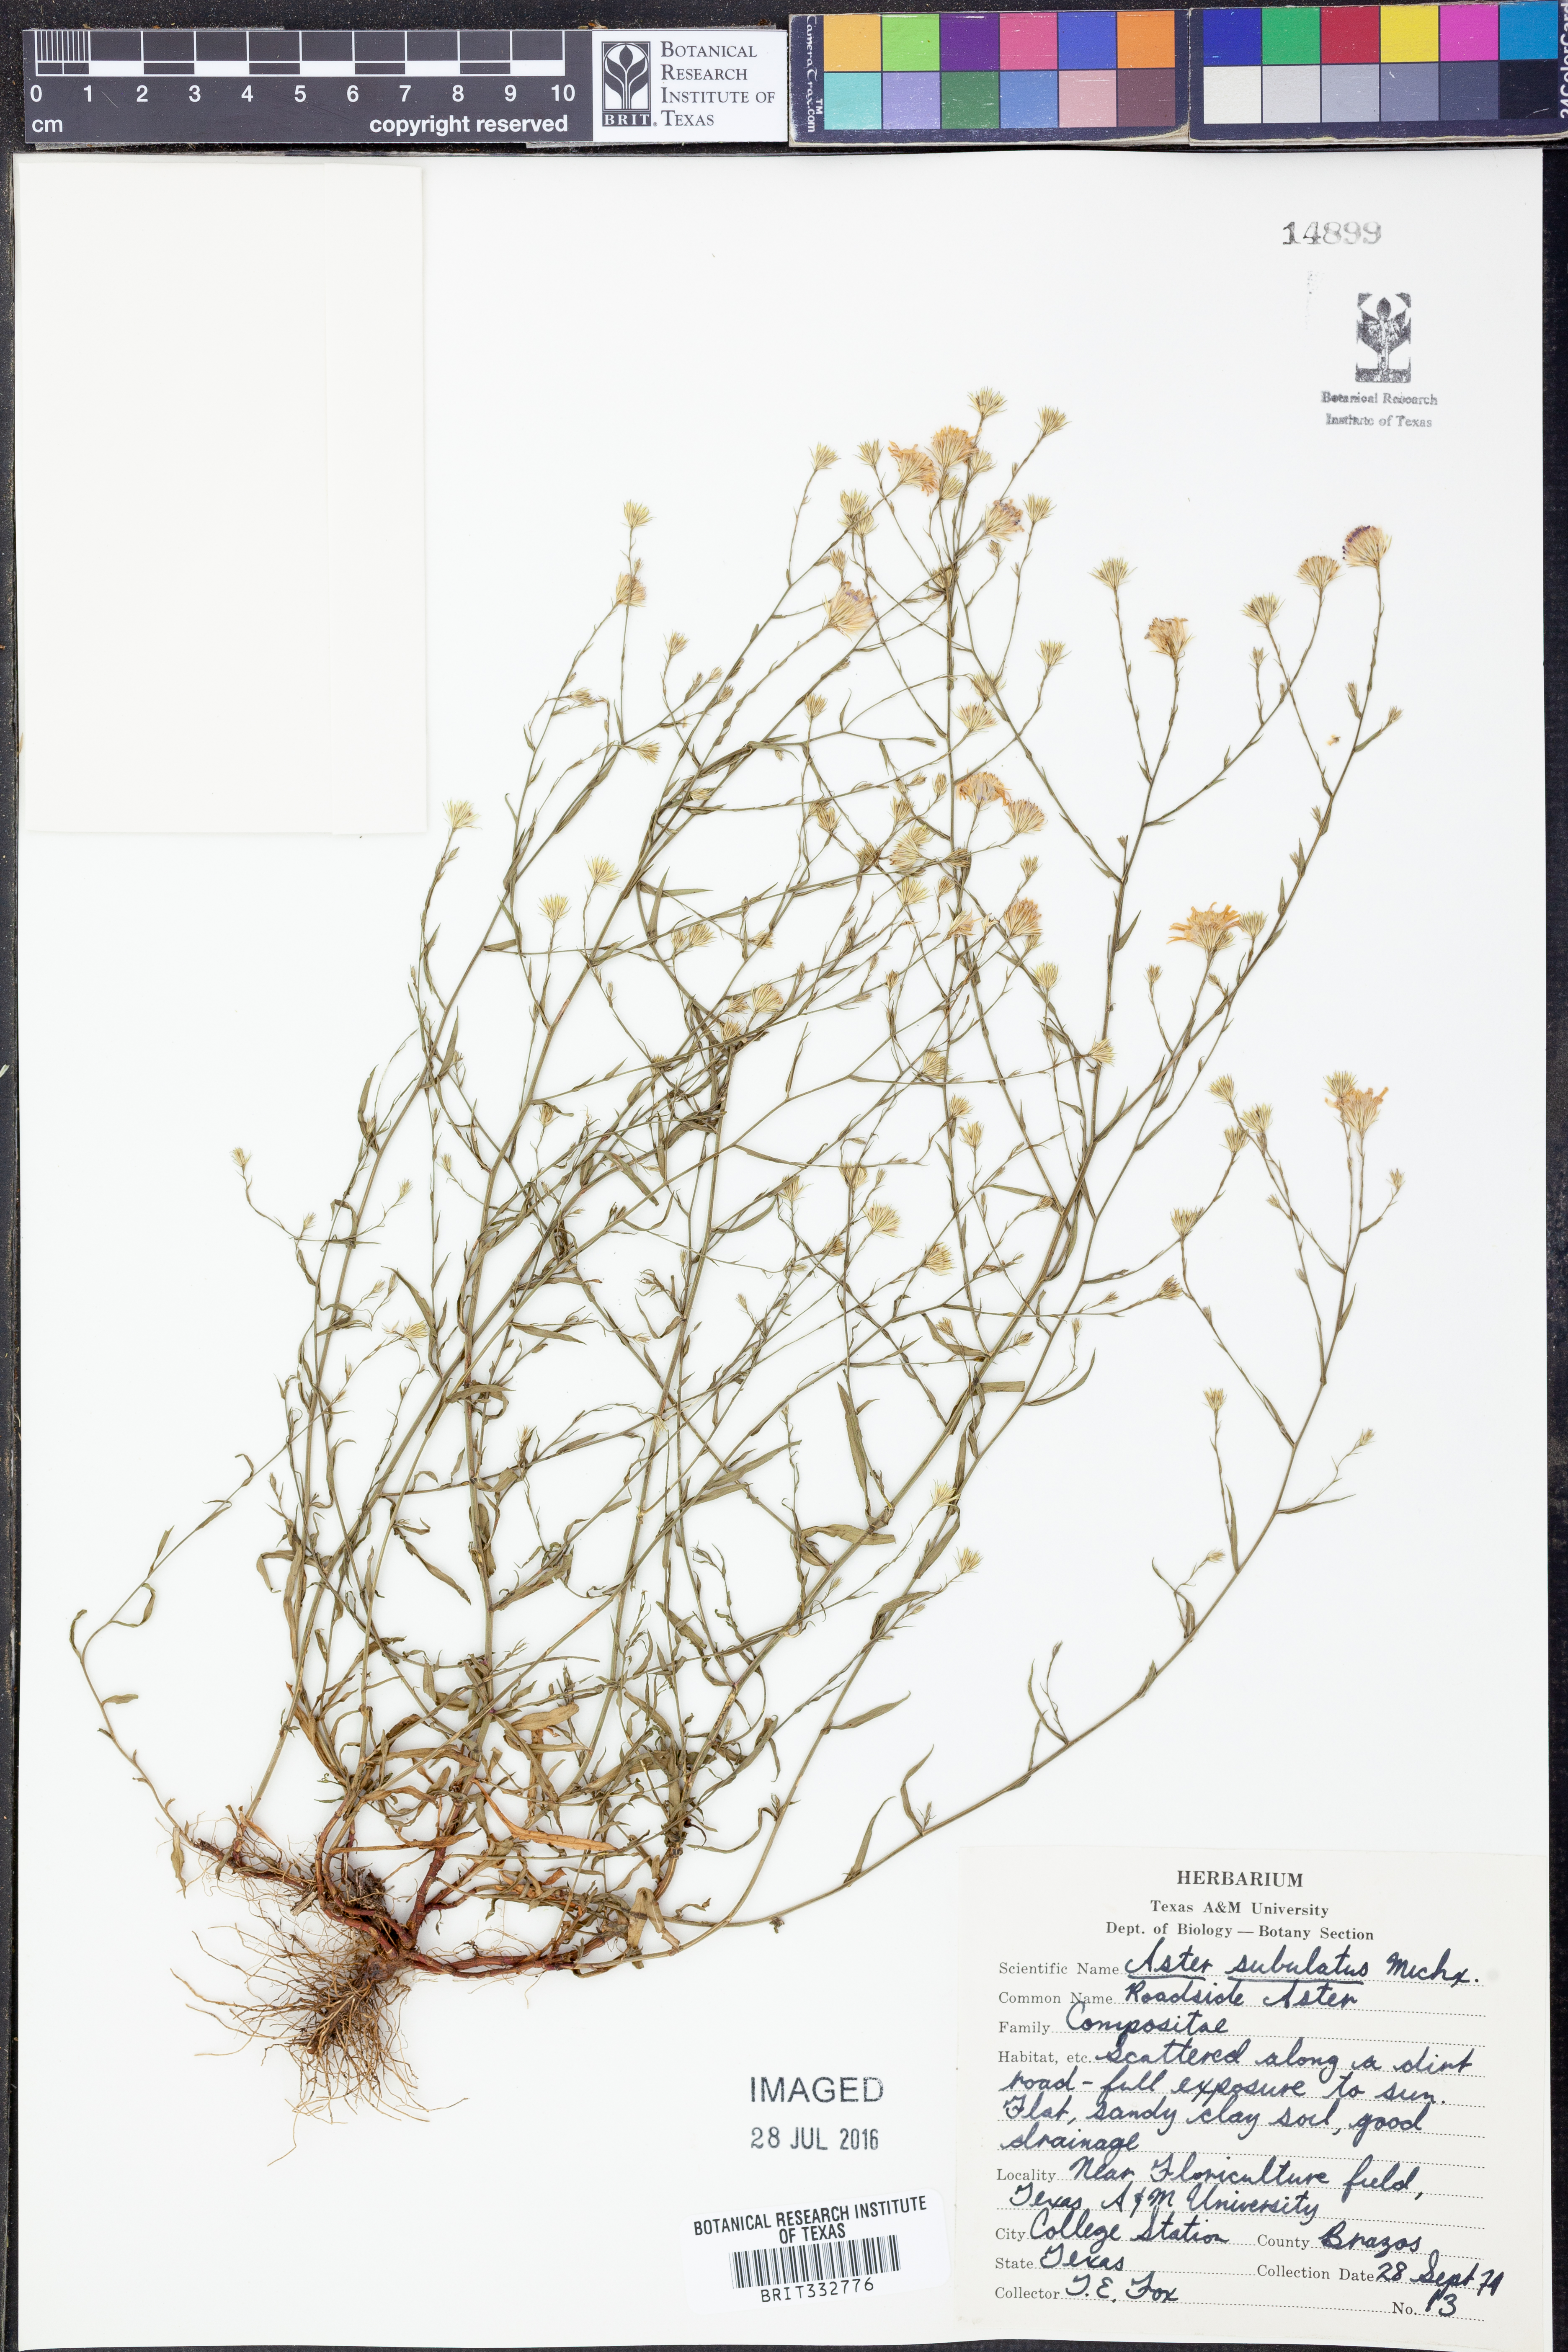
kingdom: Plantae
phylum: Tracheophyta
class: Magnoliopsida
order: Asterales
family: Asteraceae
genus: Symphyotrichum
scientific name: Symphyotrichum subulatum
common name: Annual saltmarsh aster
